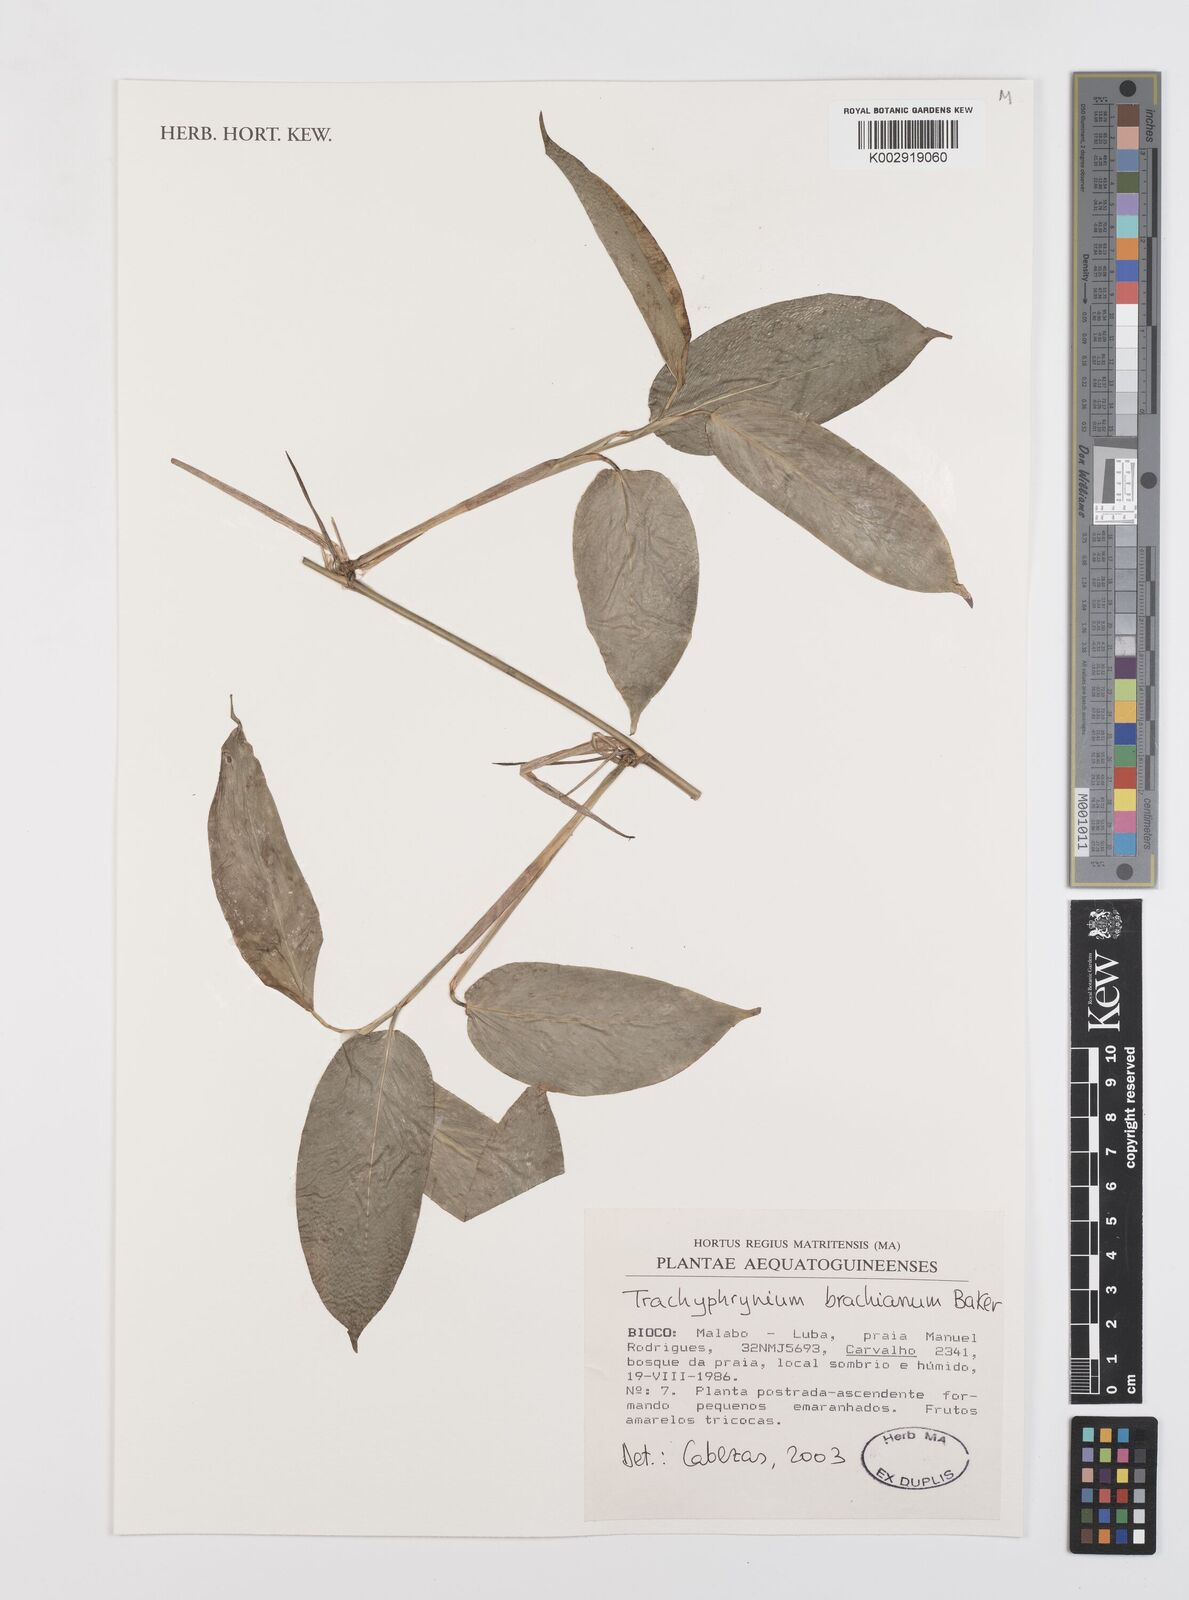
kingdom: Plantae
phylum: Tracheophyta
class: Liliopsida
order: Zingiberales
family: Marantaceae
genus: Trachyphrynium
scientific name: Trachyphrynium braunianum
